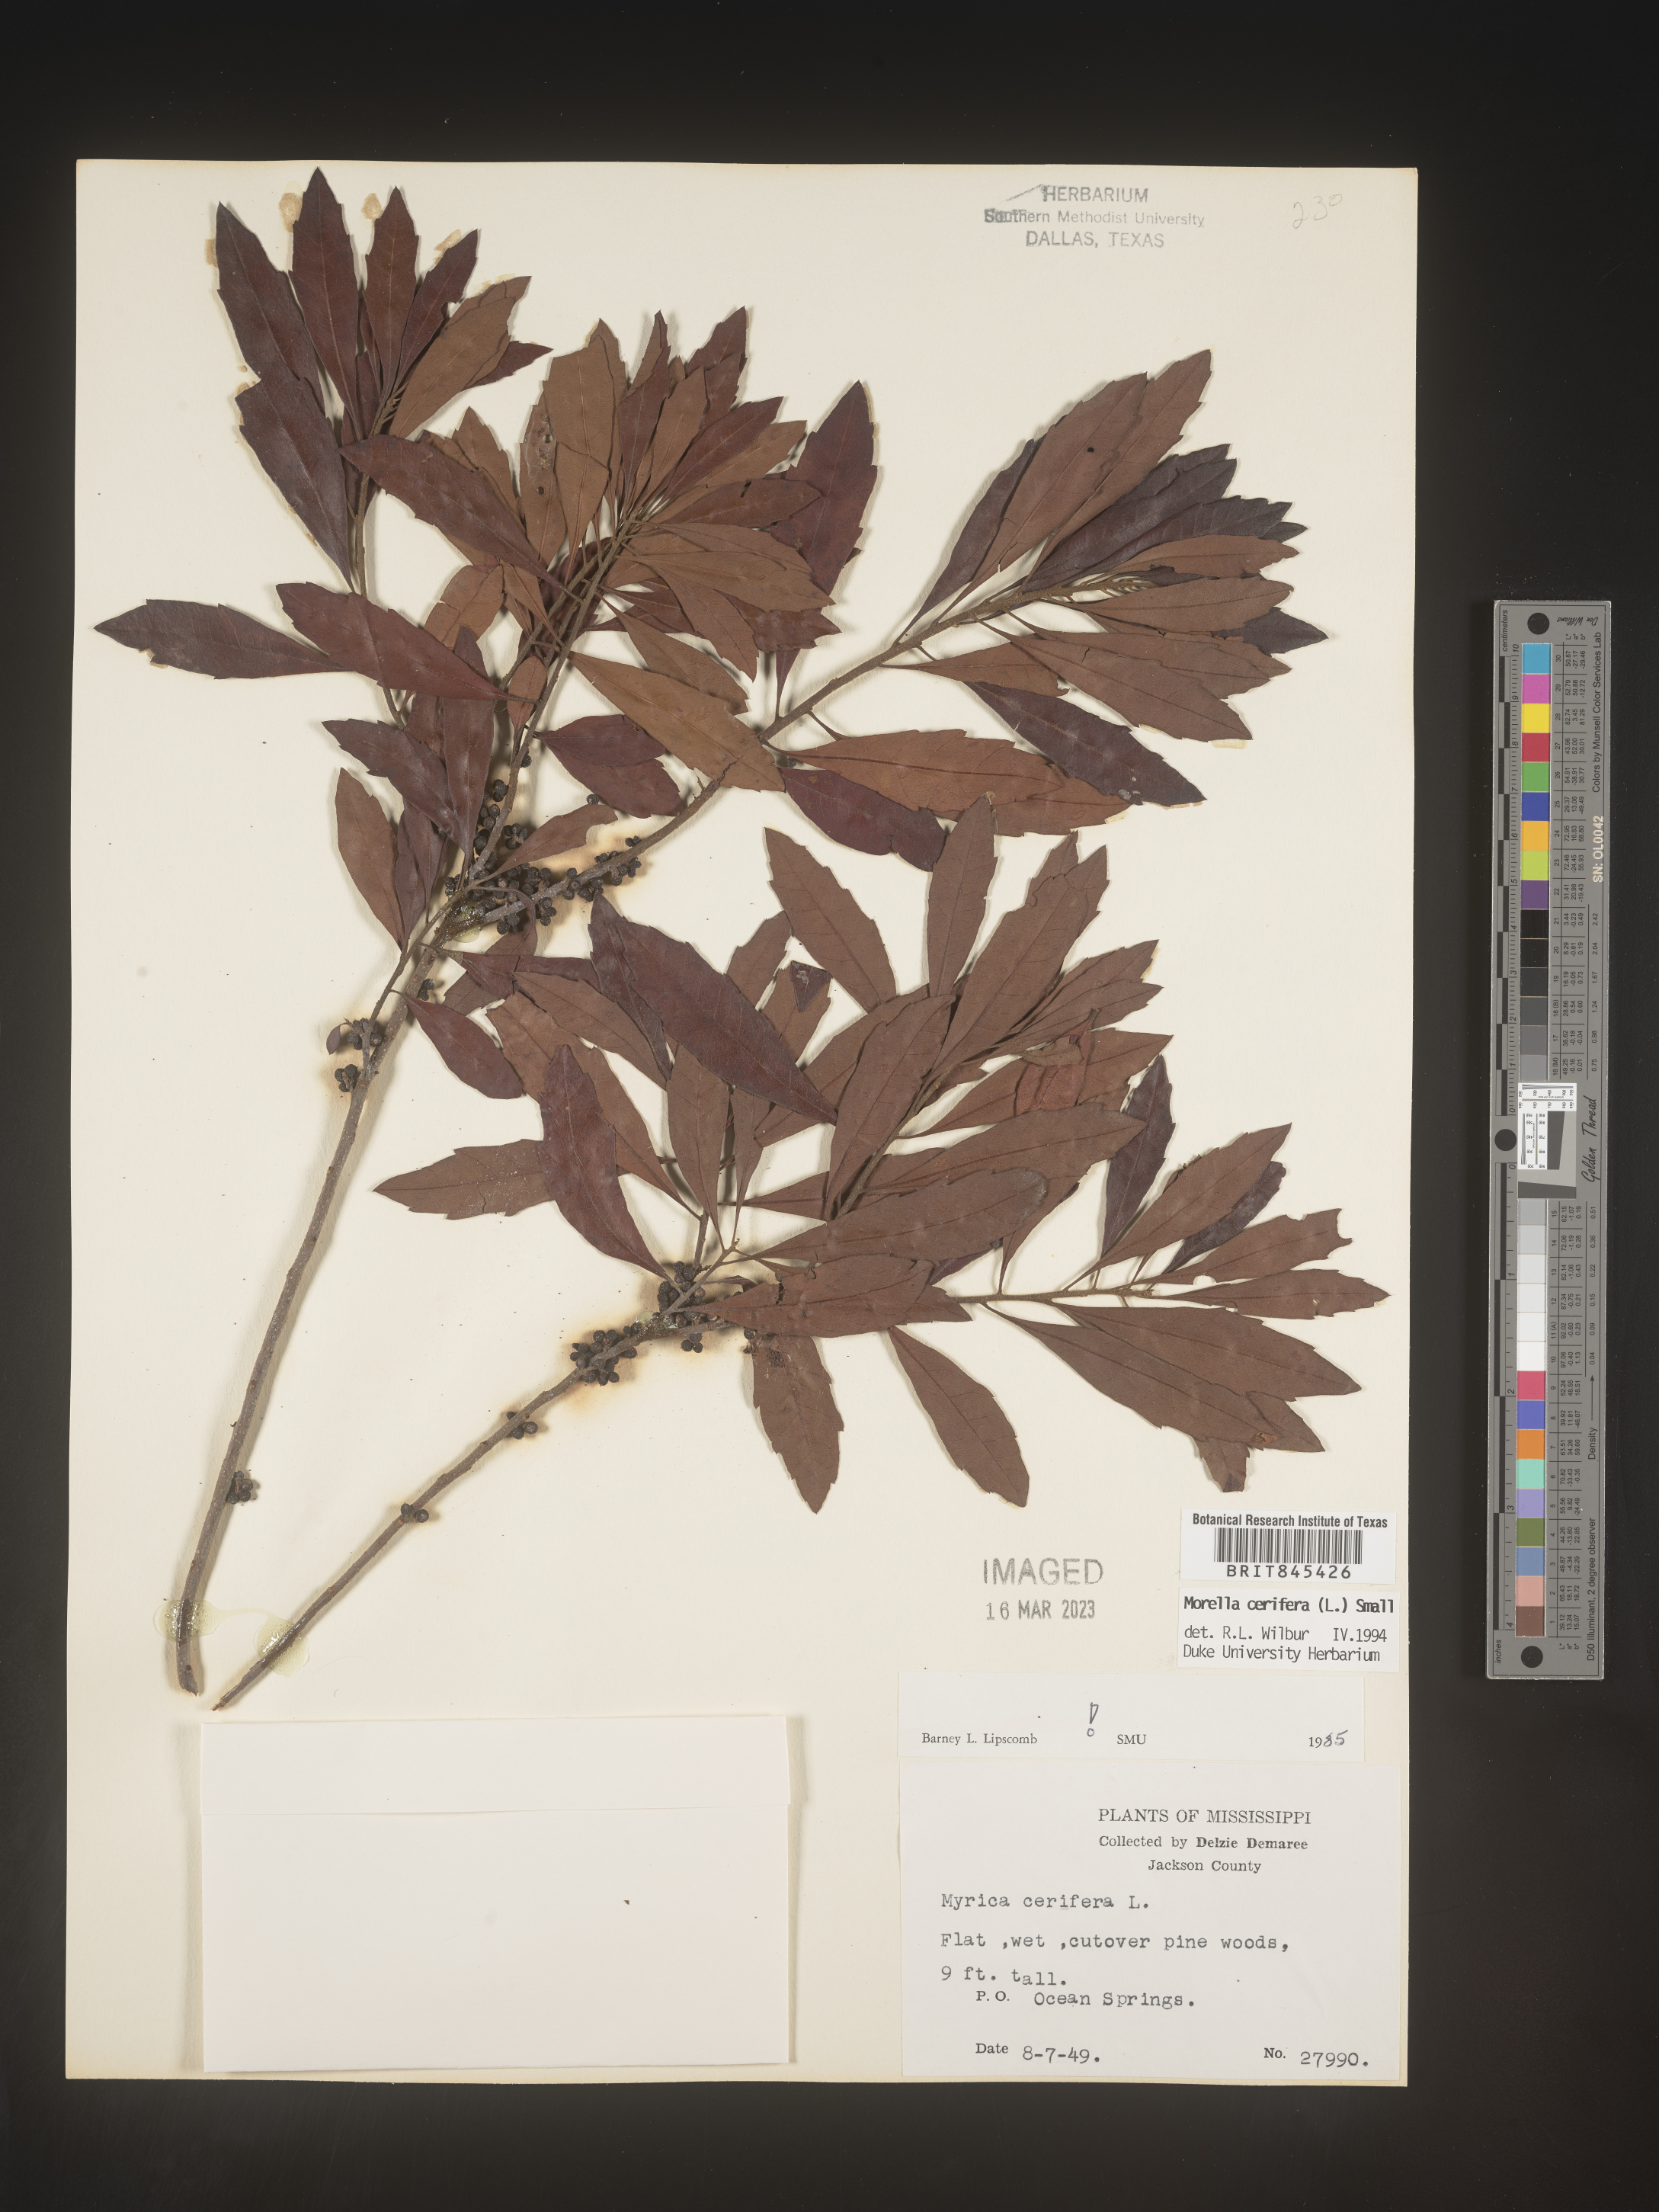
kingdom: Plantae
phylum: Tracheophyta
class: Magnoliopsida
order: Fagales
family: Myricaceae
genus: Morella
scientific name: Morella cerifera
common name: Wax myrtle
